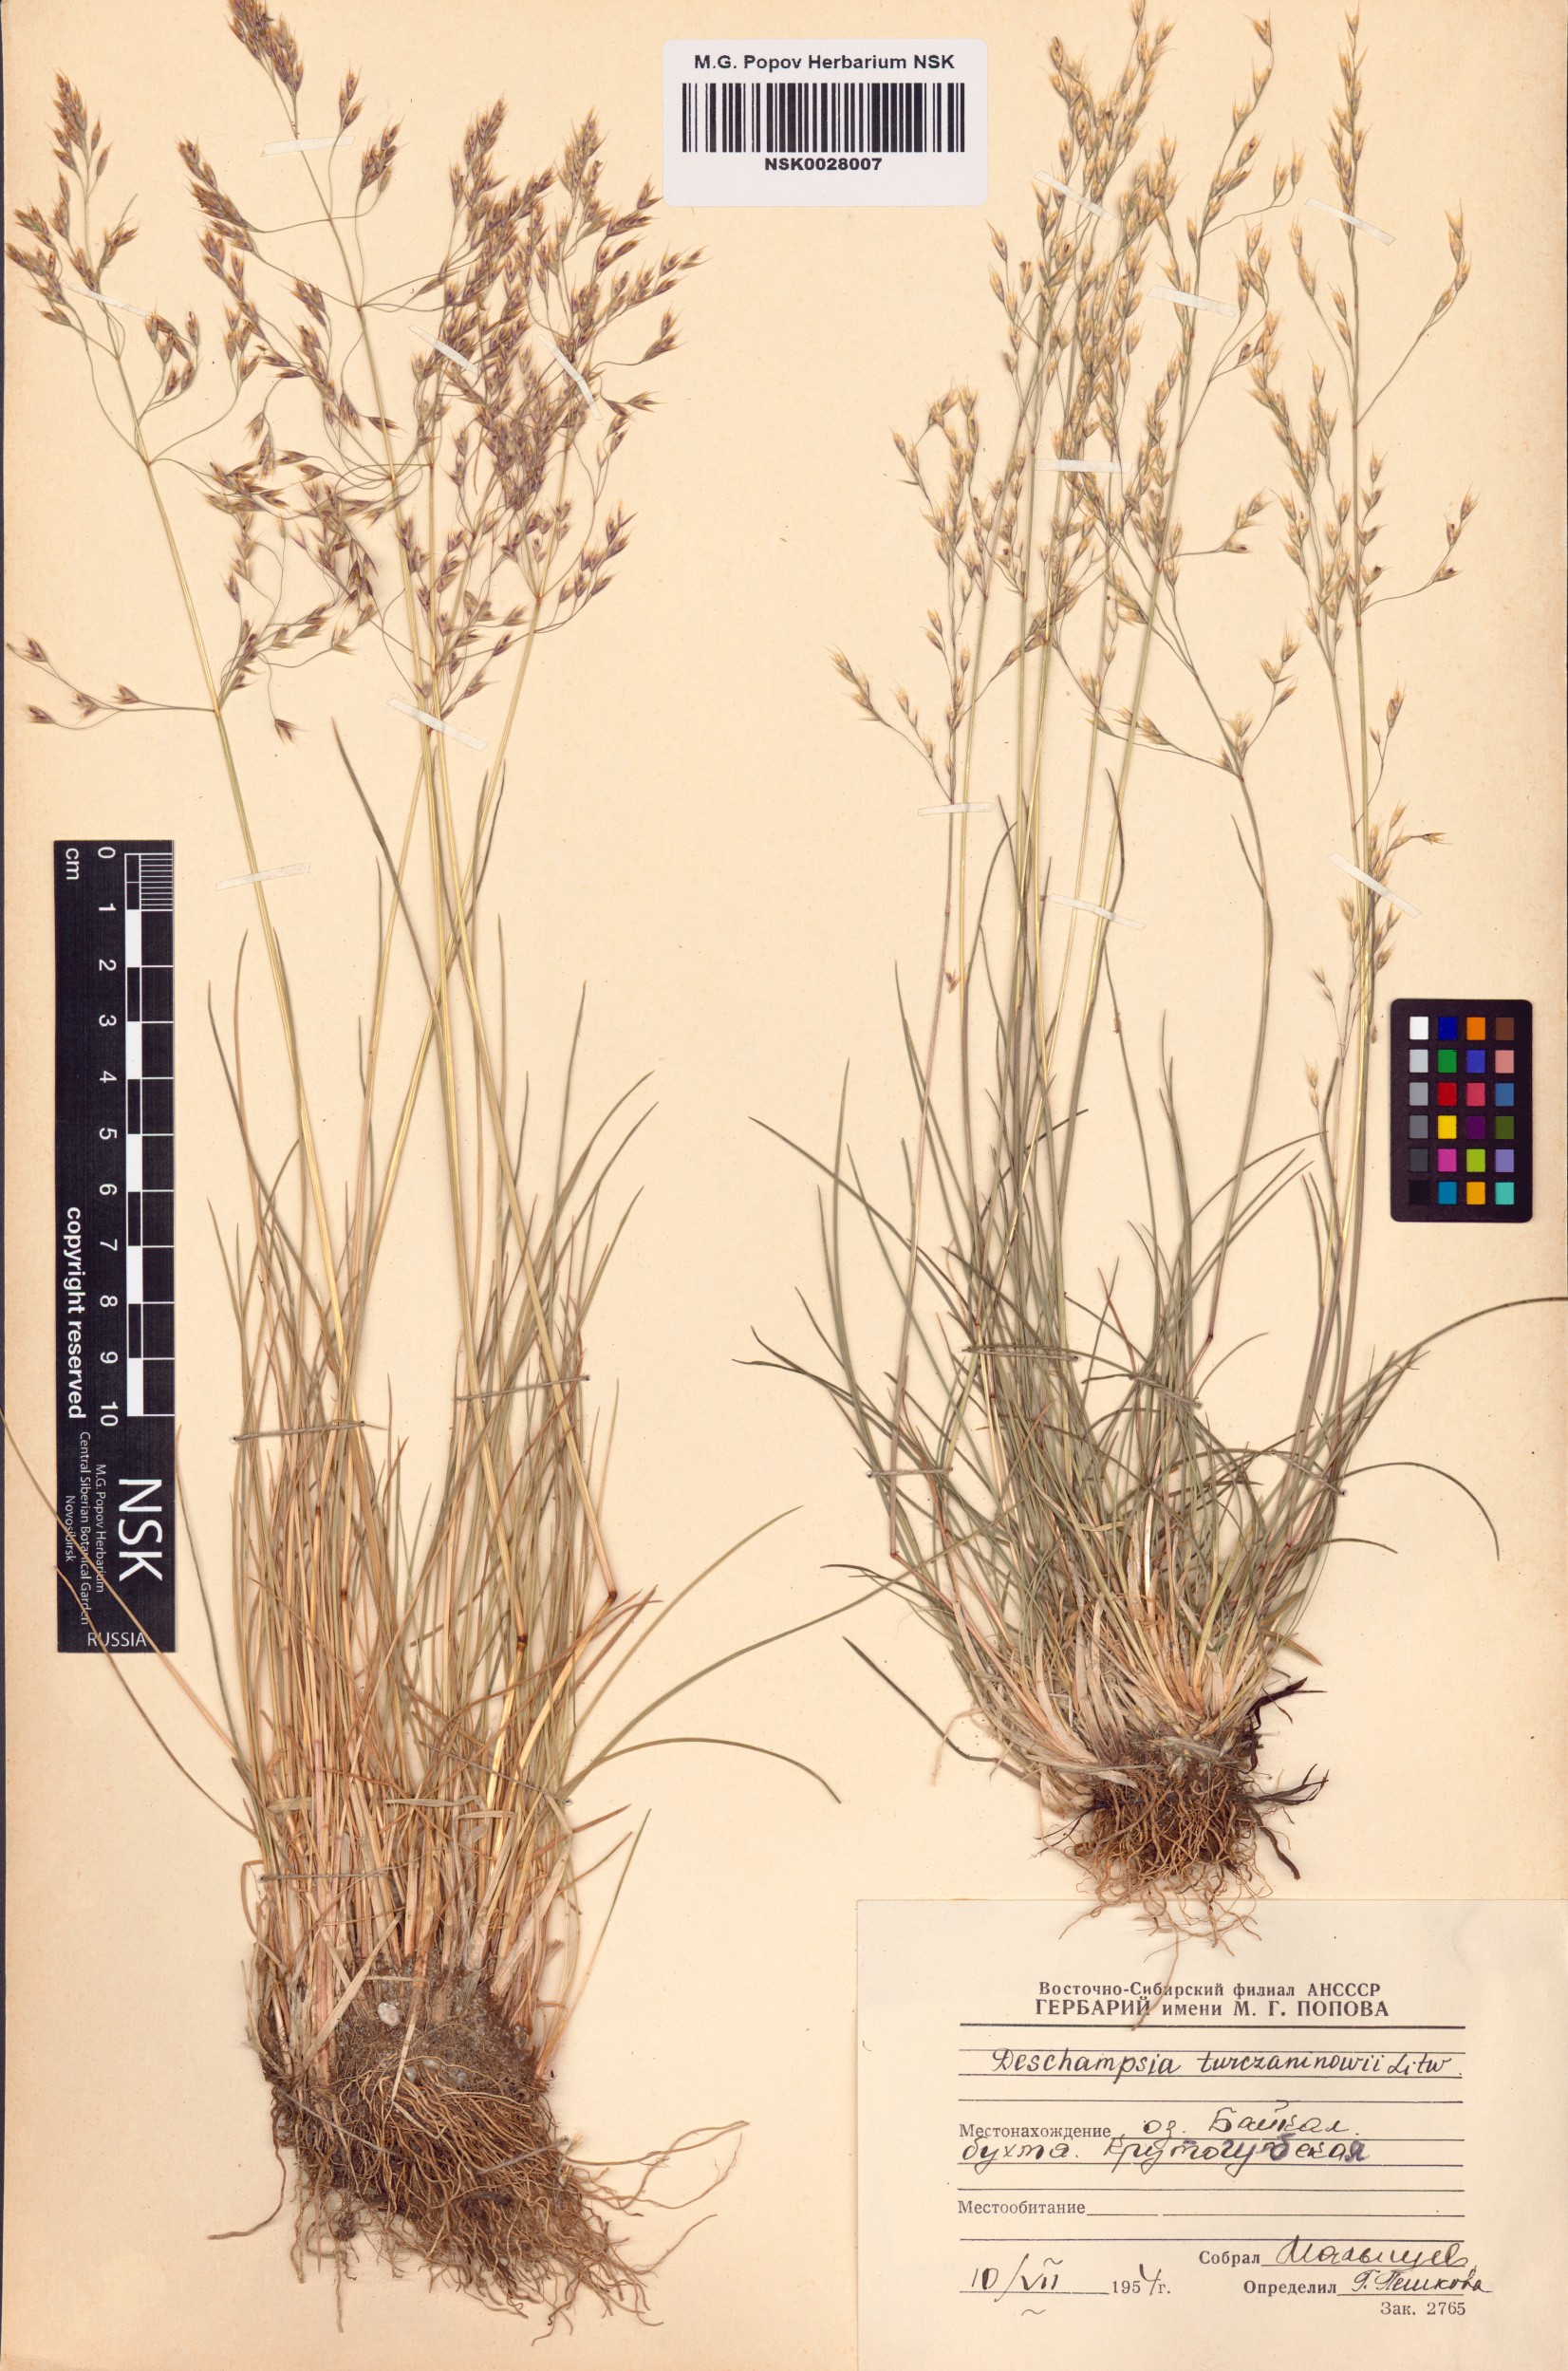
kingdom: Plantae
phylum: Tracheophyta
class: Liliopsida
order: Poales
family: Poaceae
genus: Deschampsia
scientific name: Deschampsia cespitosa
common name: Tufted hair-grass
